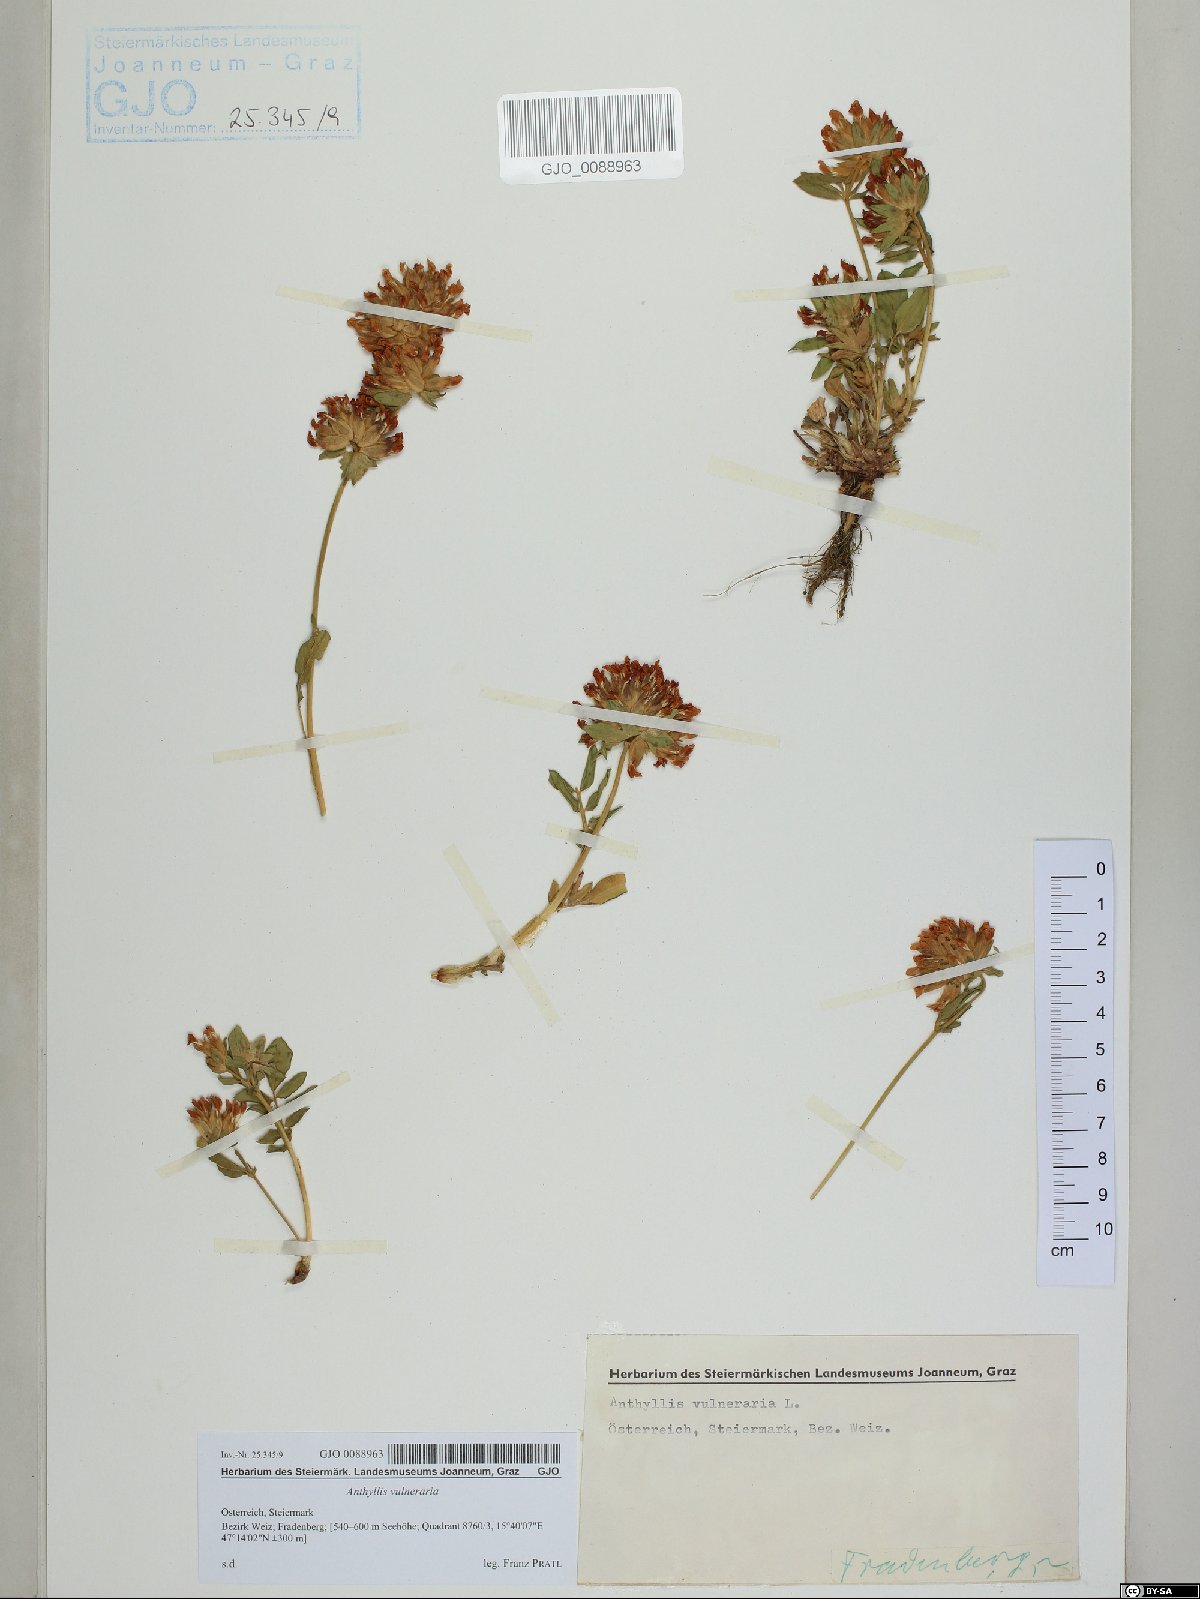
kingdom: Plantae
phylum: Tracheophyta
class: Magnoliopsida
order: Fabales
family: Fabaceae
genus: Anthyllis
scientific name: Anthyllis vulneraria
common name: Kidney vetch
